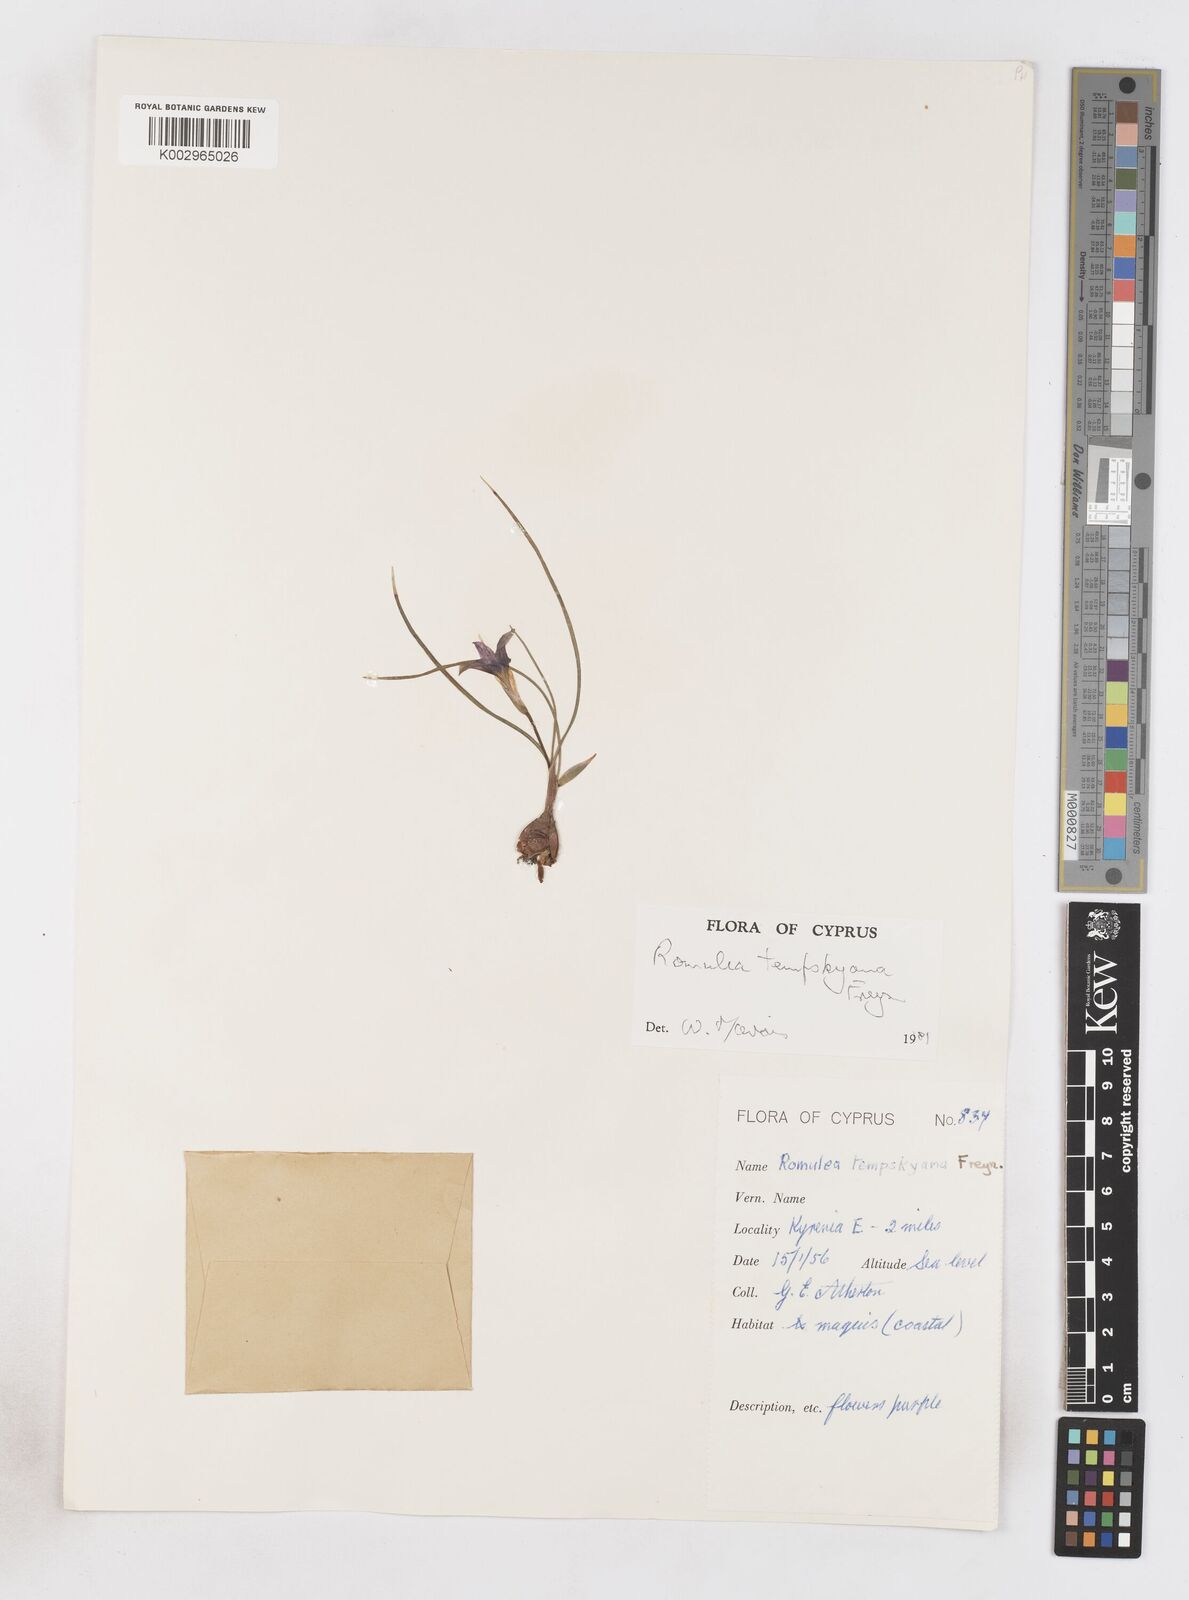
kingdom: Plantae
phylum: Tracheophyta
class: Liliopsida
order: Asparagales
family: Iridaceae
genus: Romulea
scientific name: Romulea tempskyana
